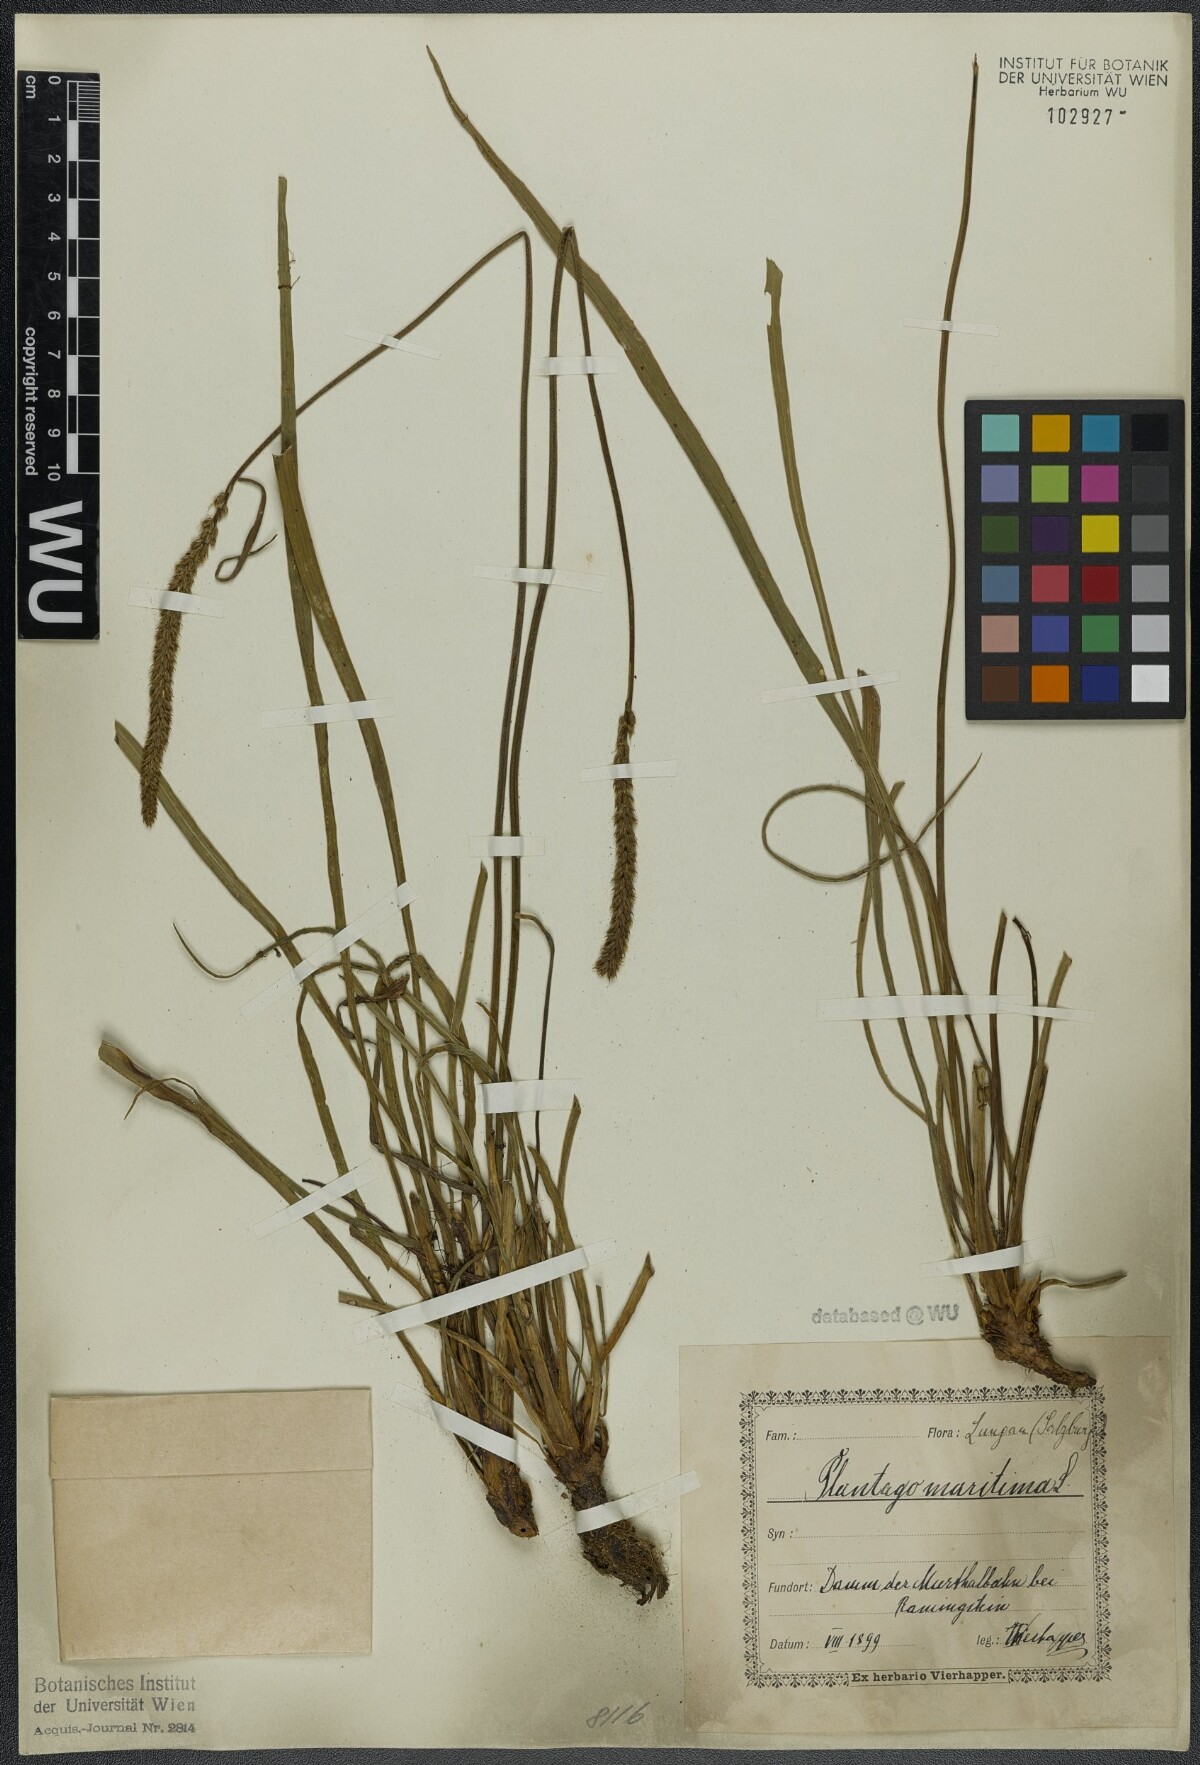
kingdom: Plantae
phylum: Tracheophyta
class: Magnoliopsida
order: Lamiales
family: Plantaginaceae
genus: Plantago
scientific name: Plantago maritima
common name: Sea plantain
